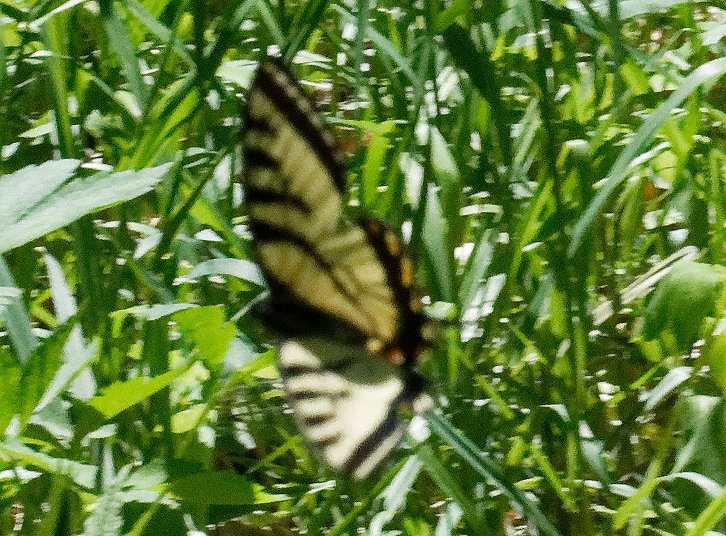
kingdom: Animalia
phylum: Arthropoda
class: Insecta
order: Lepidoptera
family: Papilionidae
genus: Pterourus
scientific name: Pterourus canadensis
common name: Canadian Tiger Swallowtail
